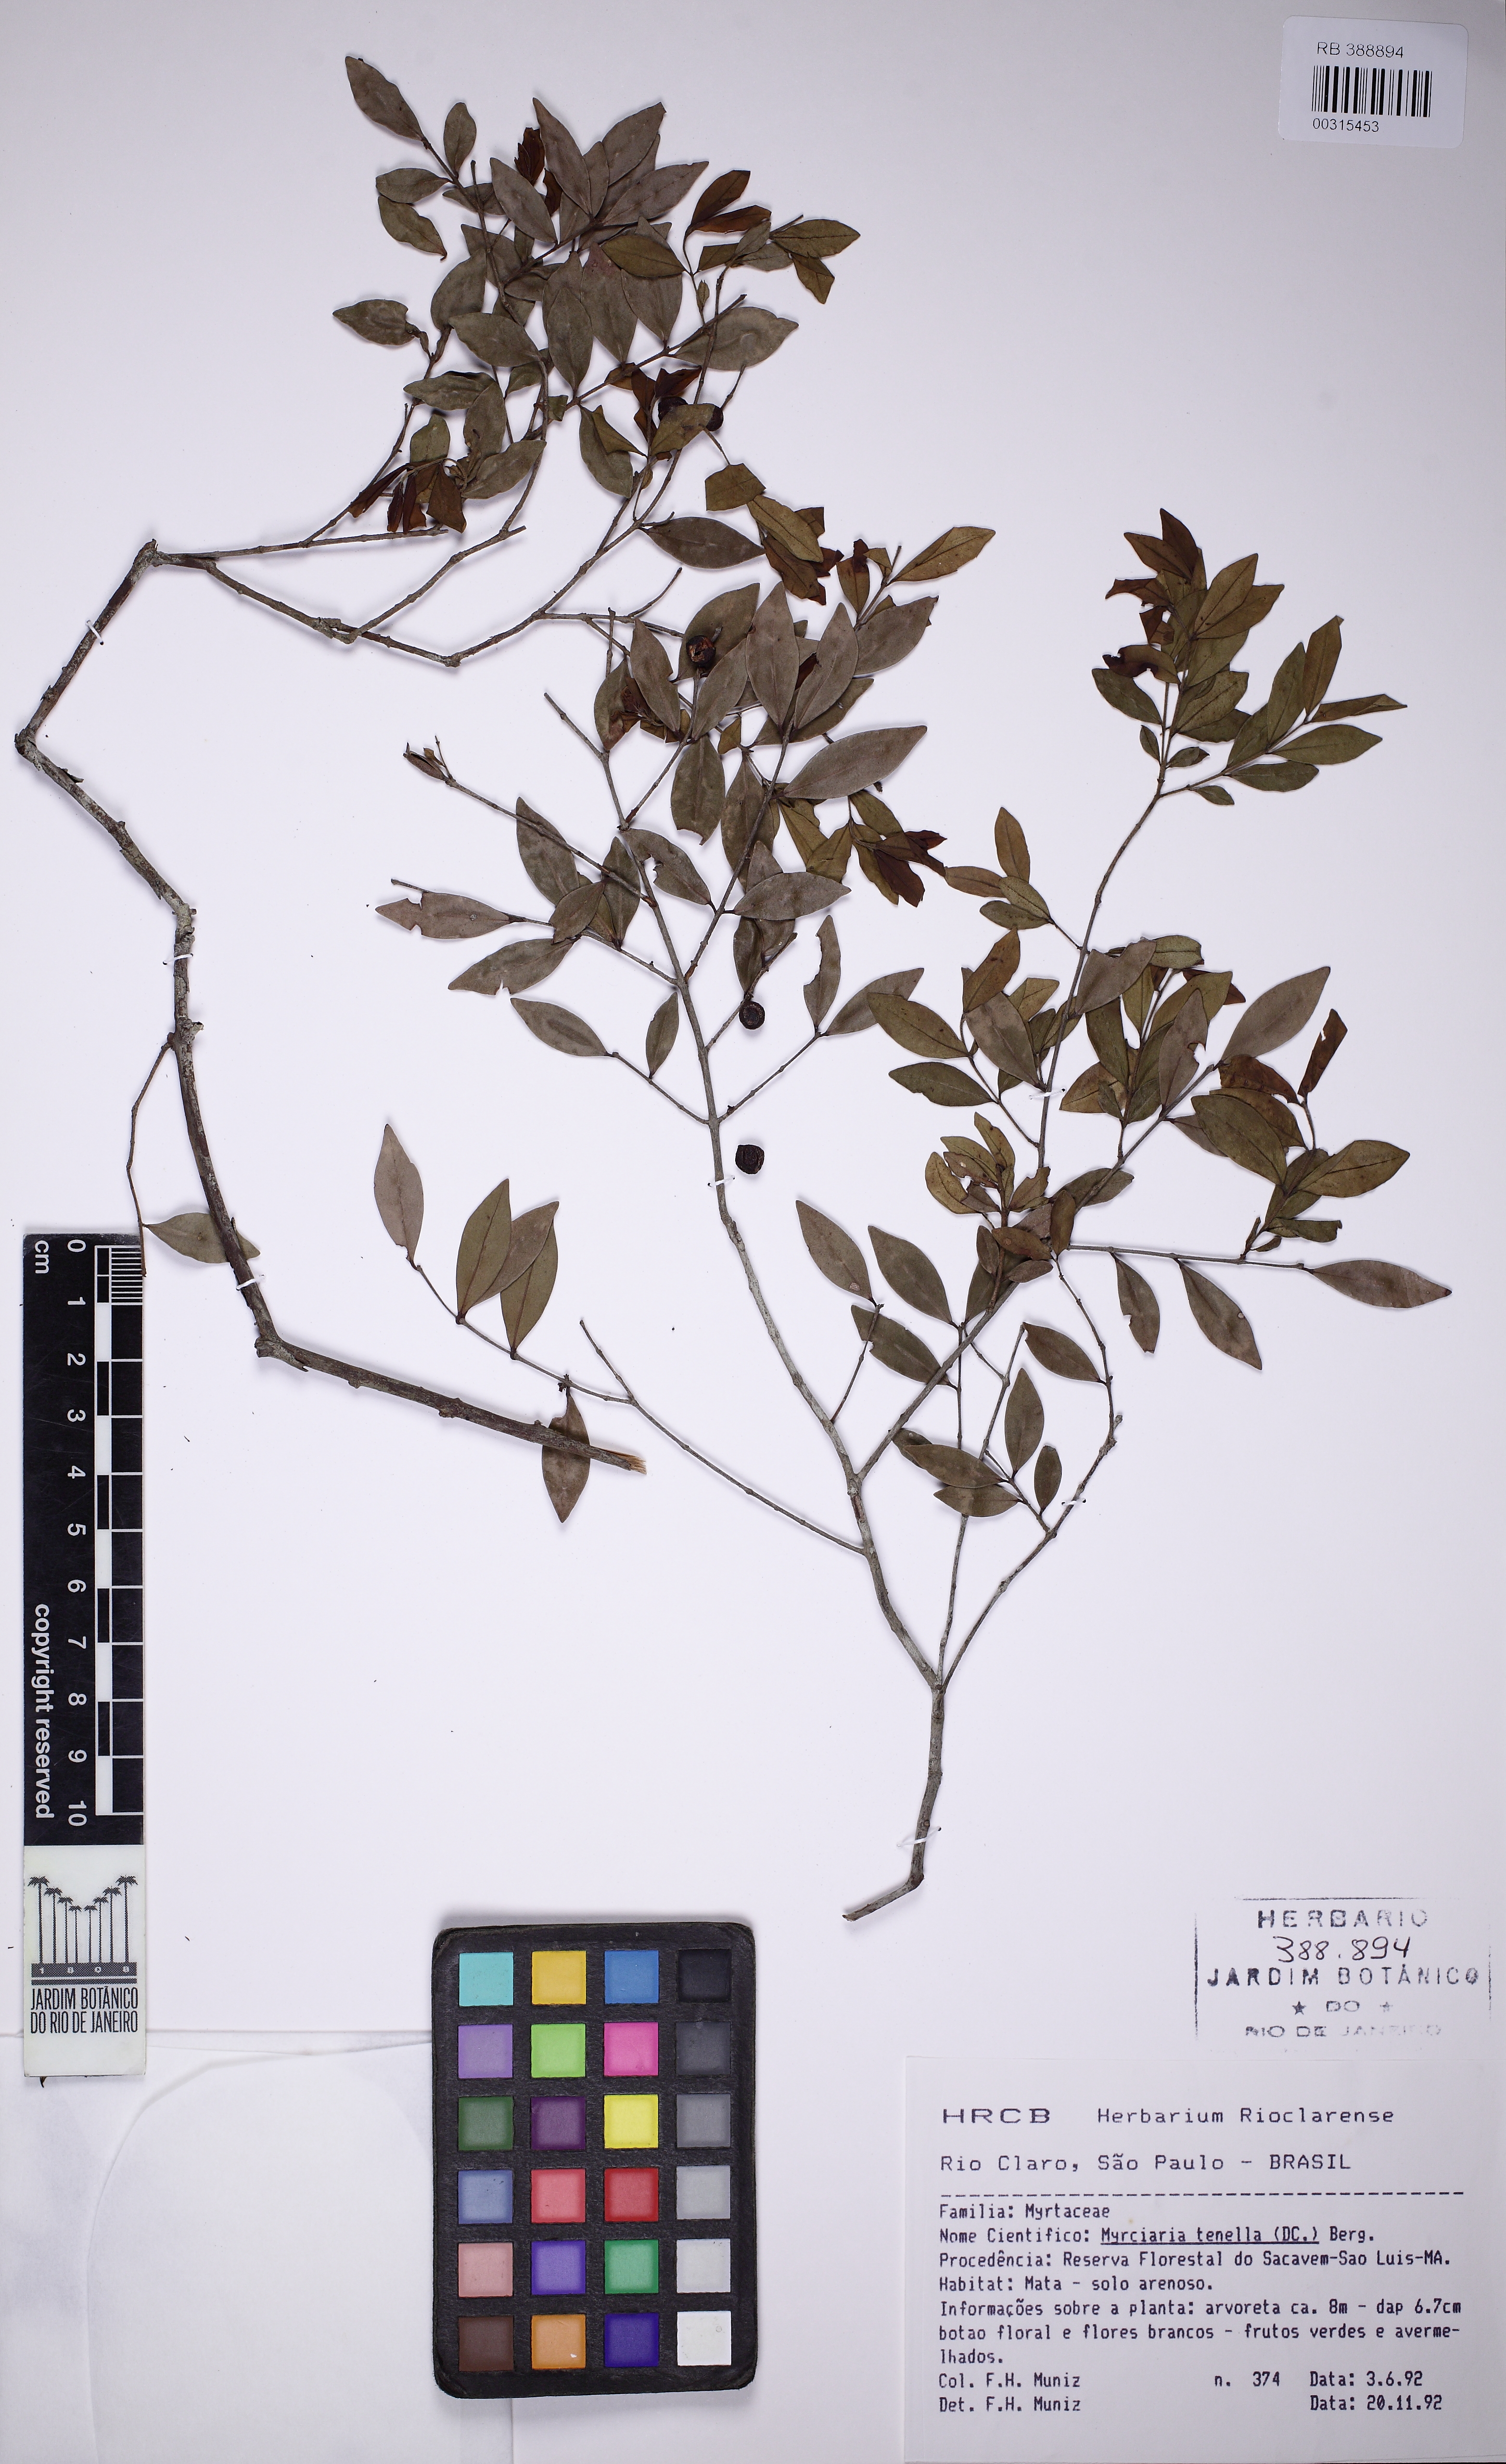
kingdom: Plantae
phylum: Tracheophyta
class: Magnoliopsida
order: Myrtales
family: Myrtaceae
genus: Myrciaria
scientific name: Myrciaria tenella
